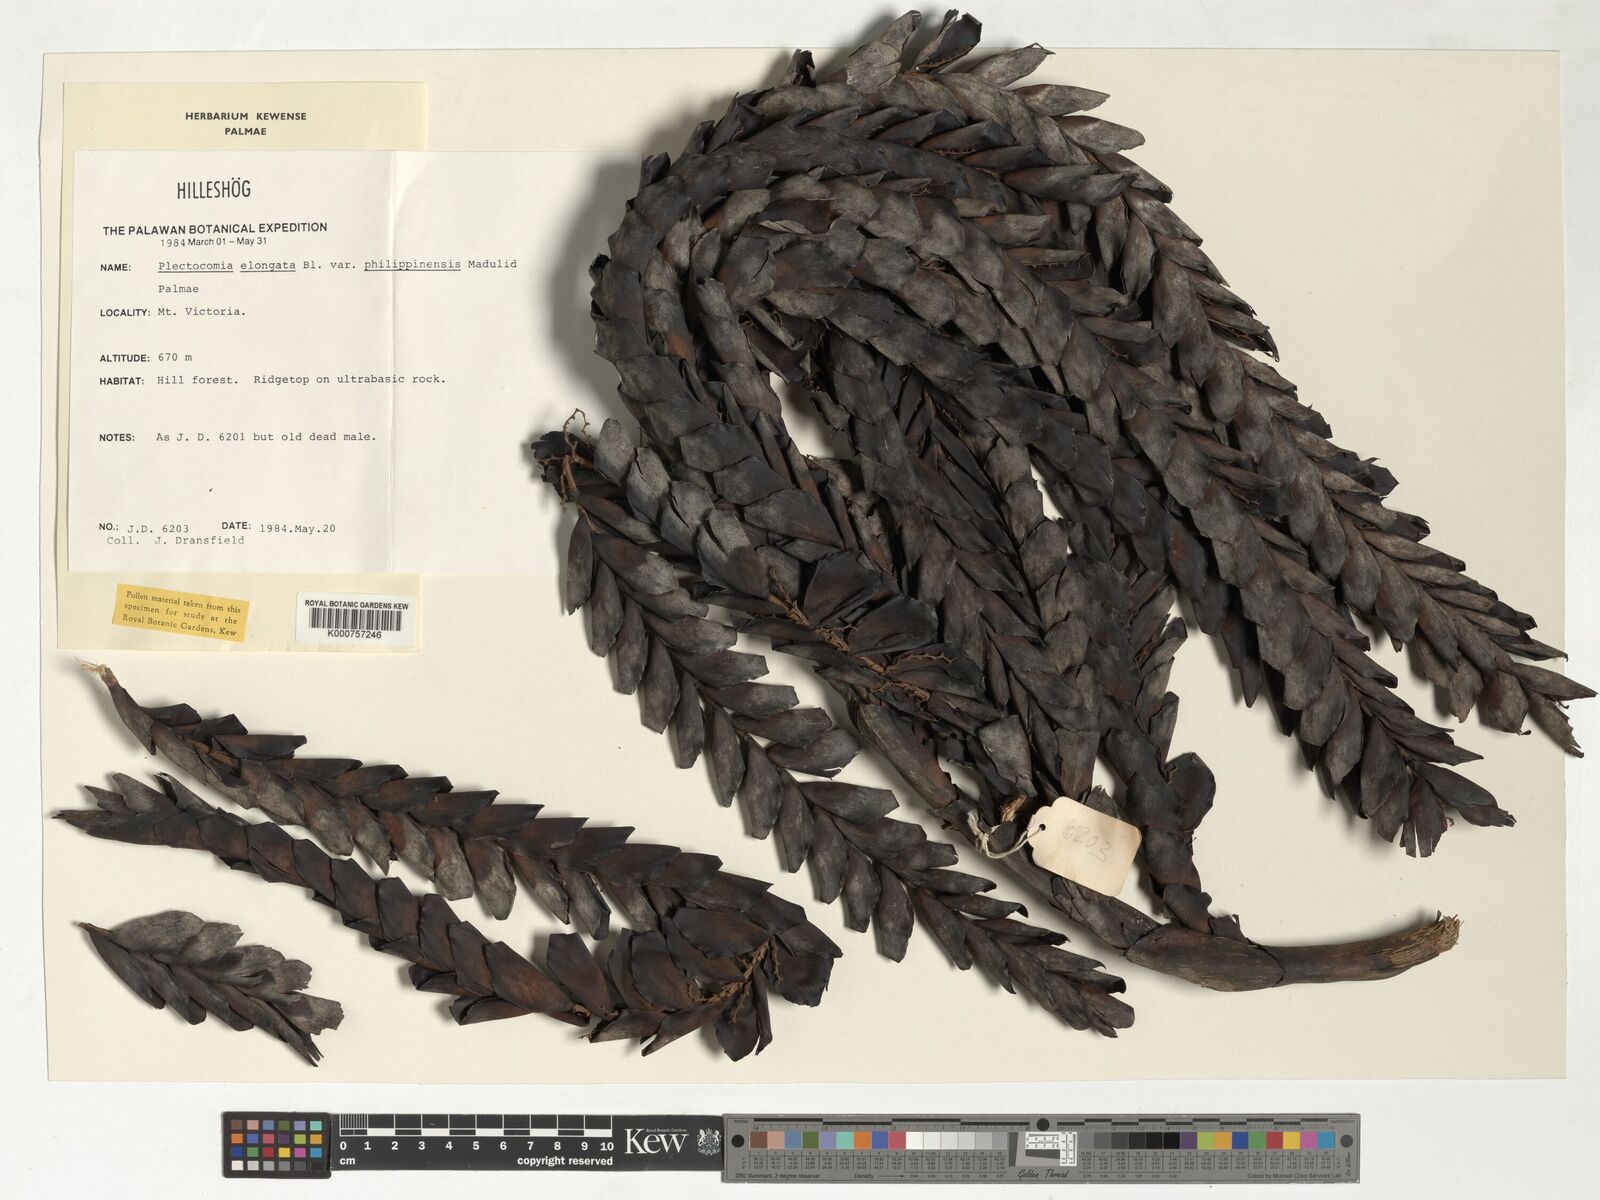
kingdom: Plantae
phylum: Tracheophyta
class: Liliopsida
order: Arecales
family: Arecaceae
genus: Plectocomia
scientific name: Plectocomia elongata
